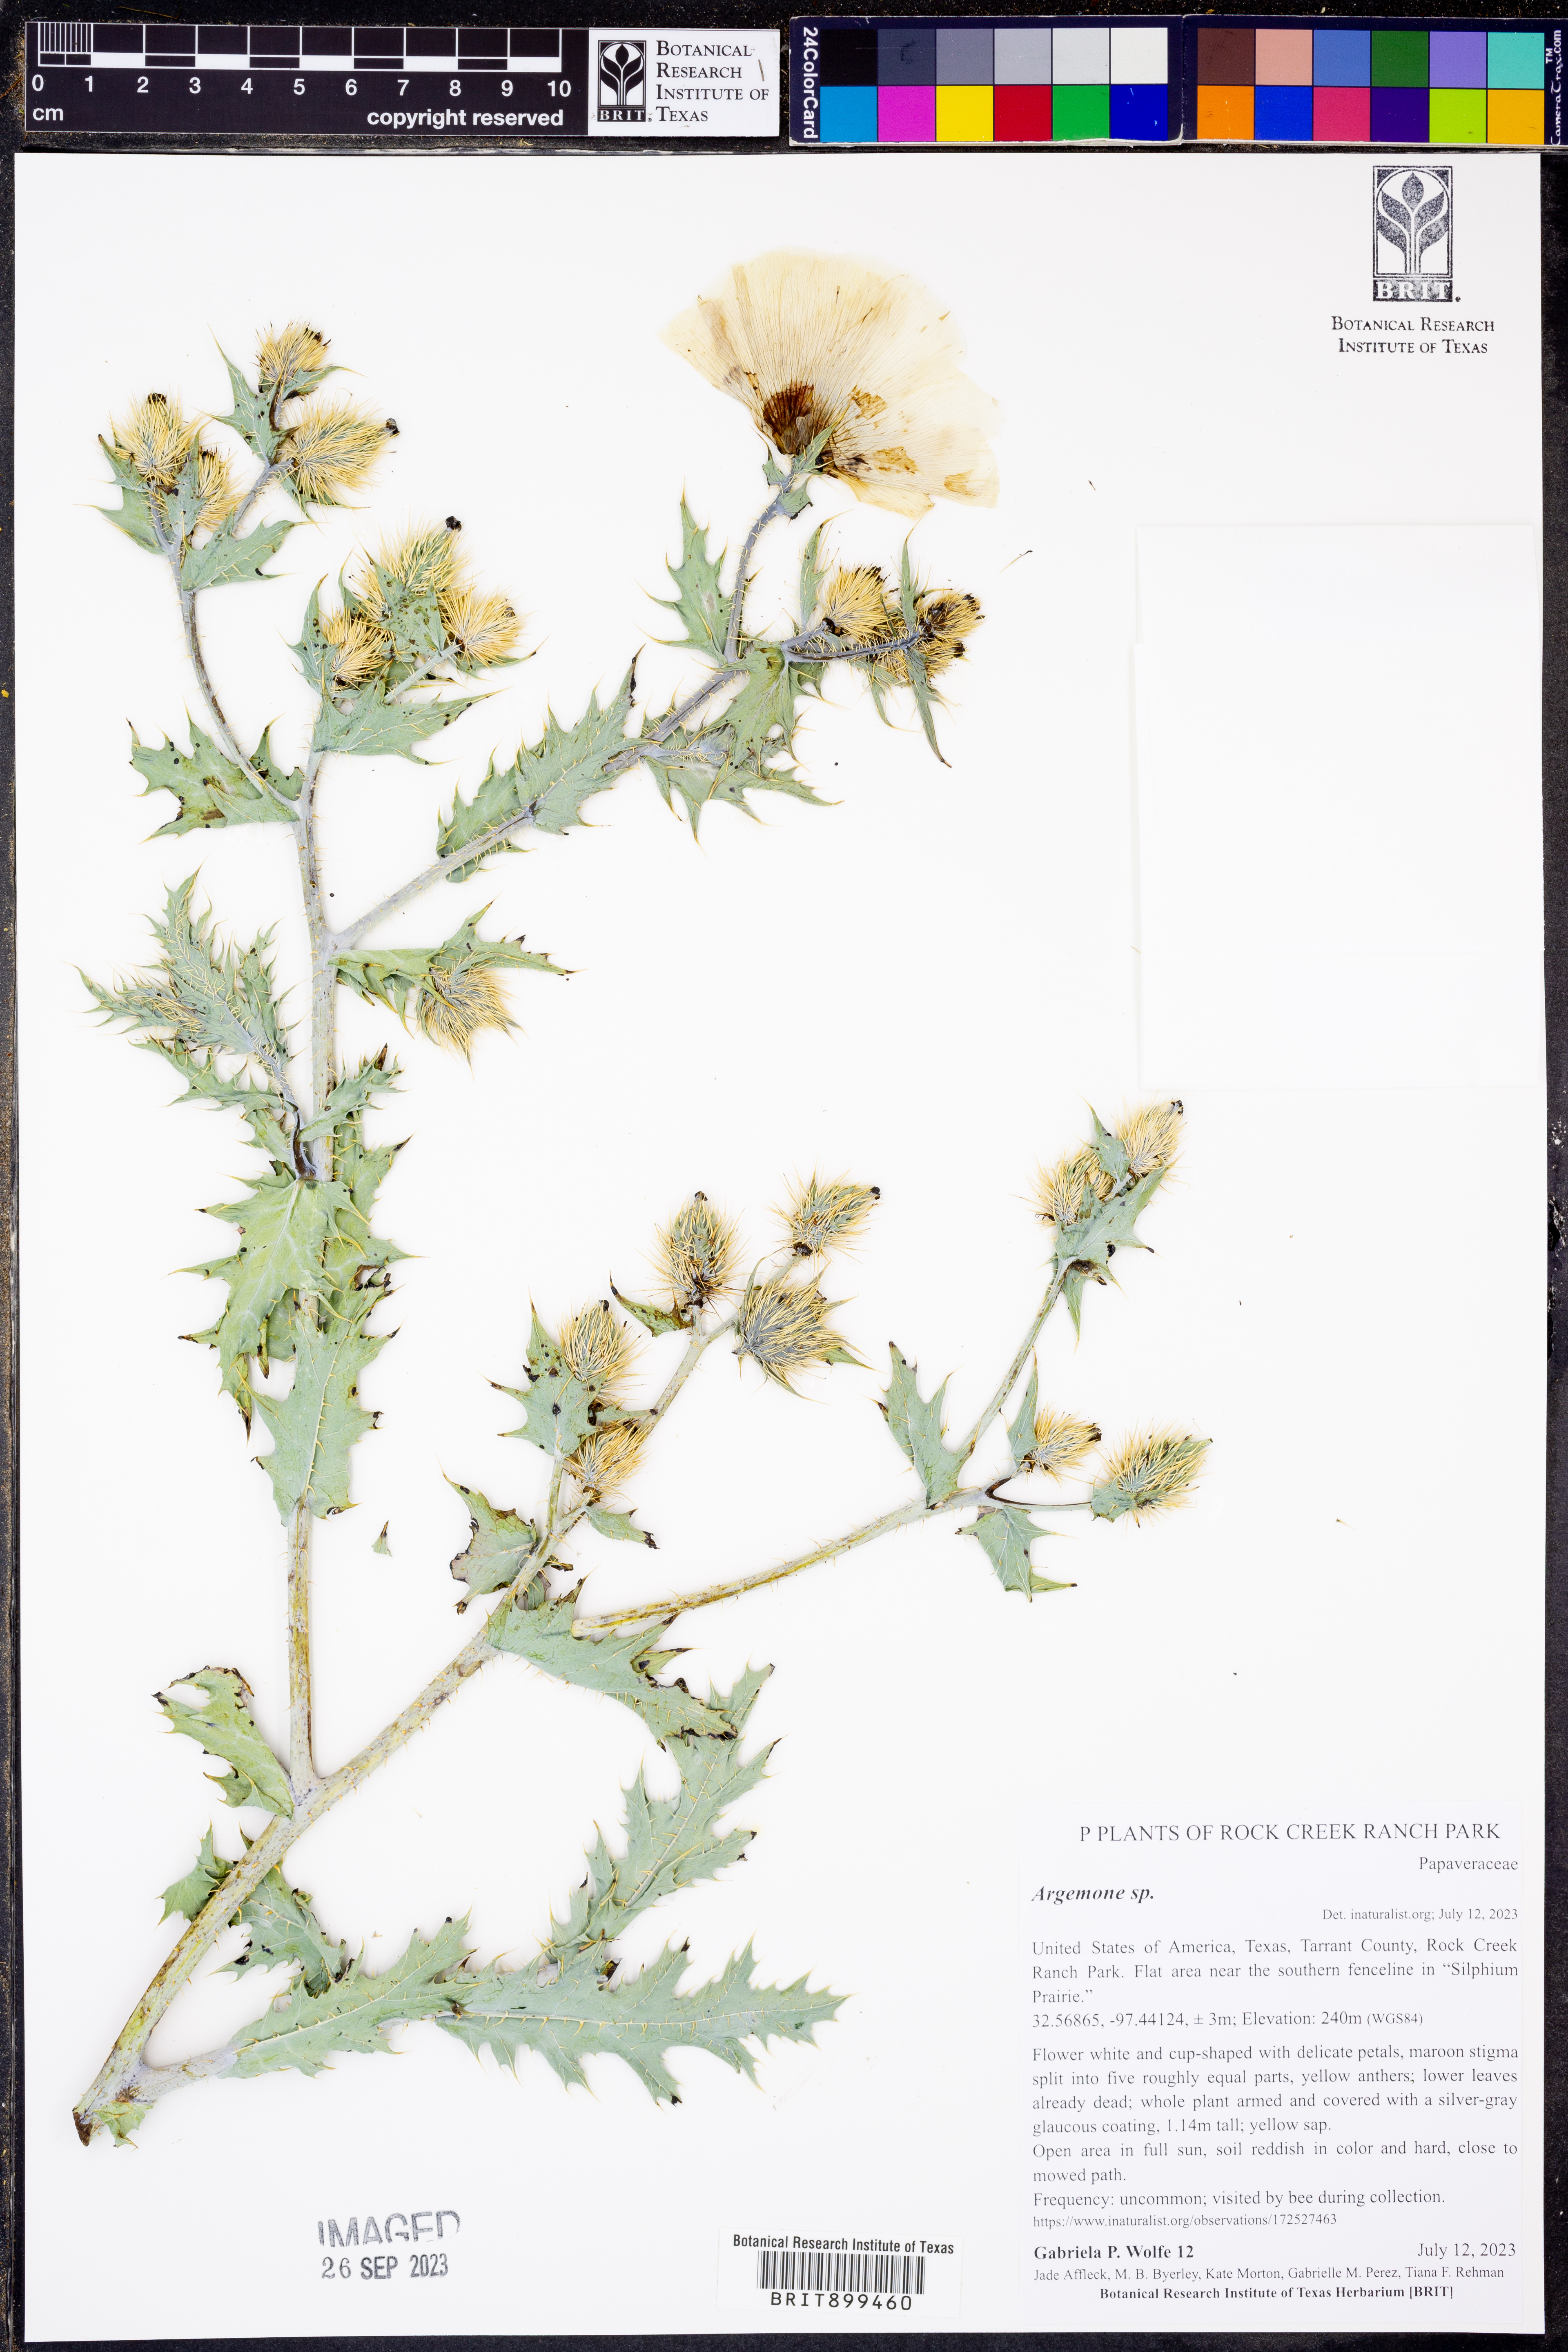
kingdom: Plantae
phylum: Tracheophyta
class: Magnoliopsida
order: Ranunculales
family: Papaveraceae
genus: Argemone
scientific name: Argemone
